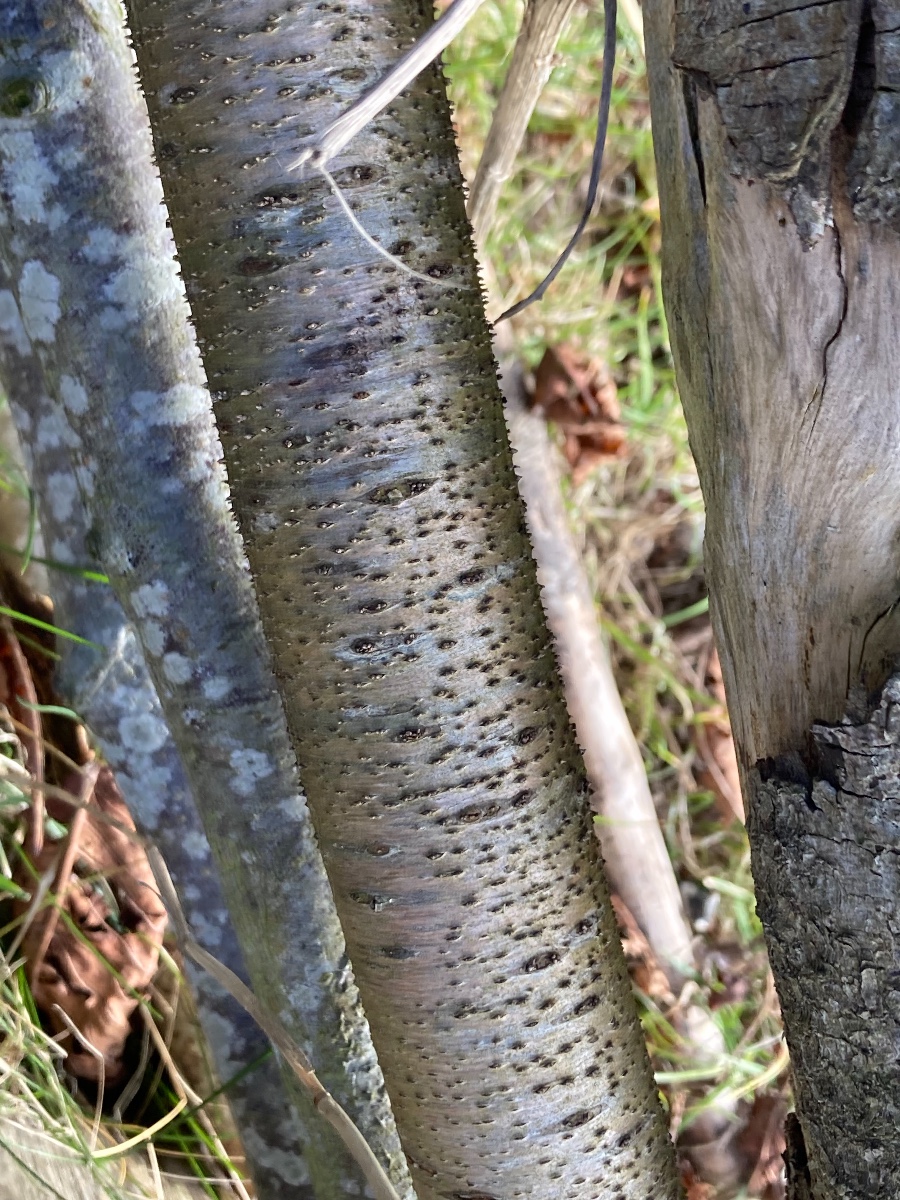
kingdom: Fungi
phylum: Ascomycota
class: Leotiomycetes
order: Helotiales
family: Dermateaceae
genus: Dermea
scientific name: Dermea cerasi
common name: kirsebær-klyngeskive
